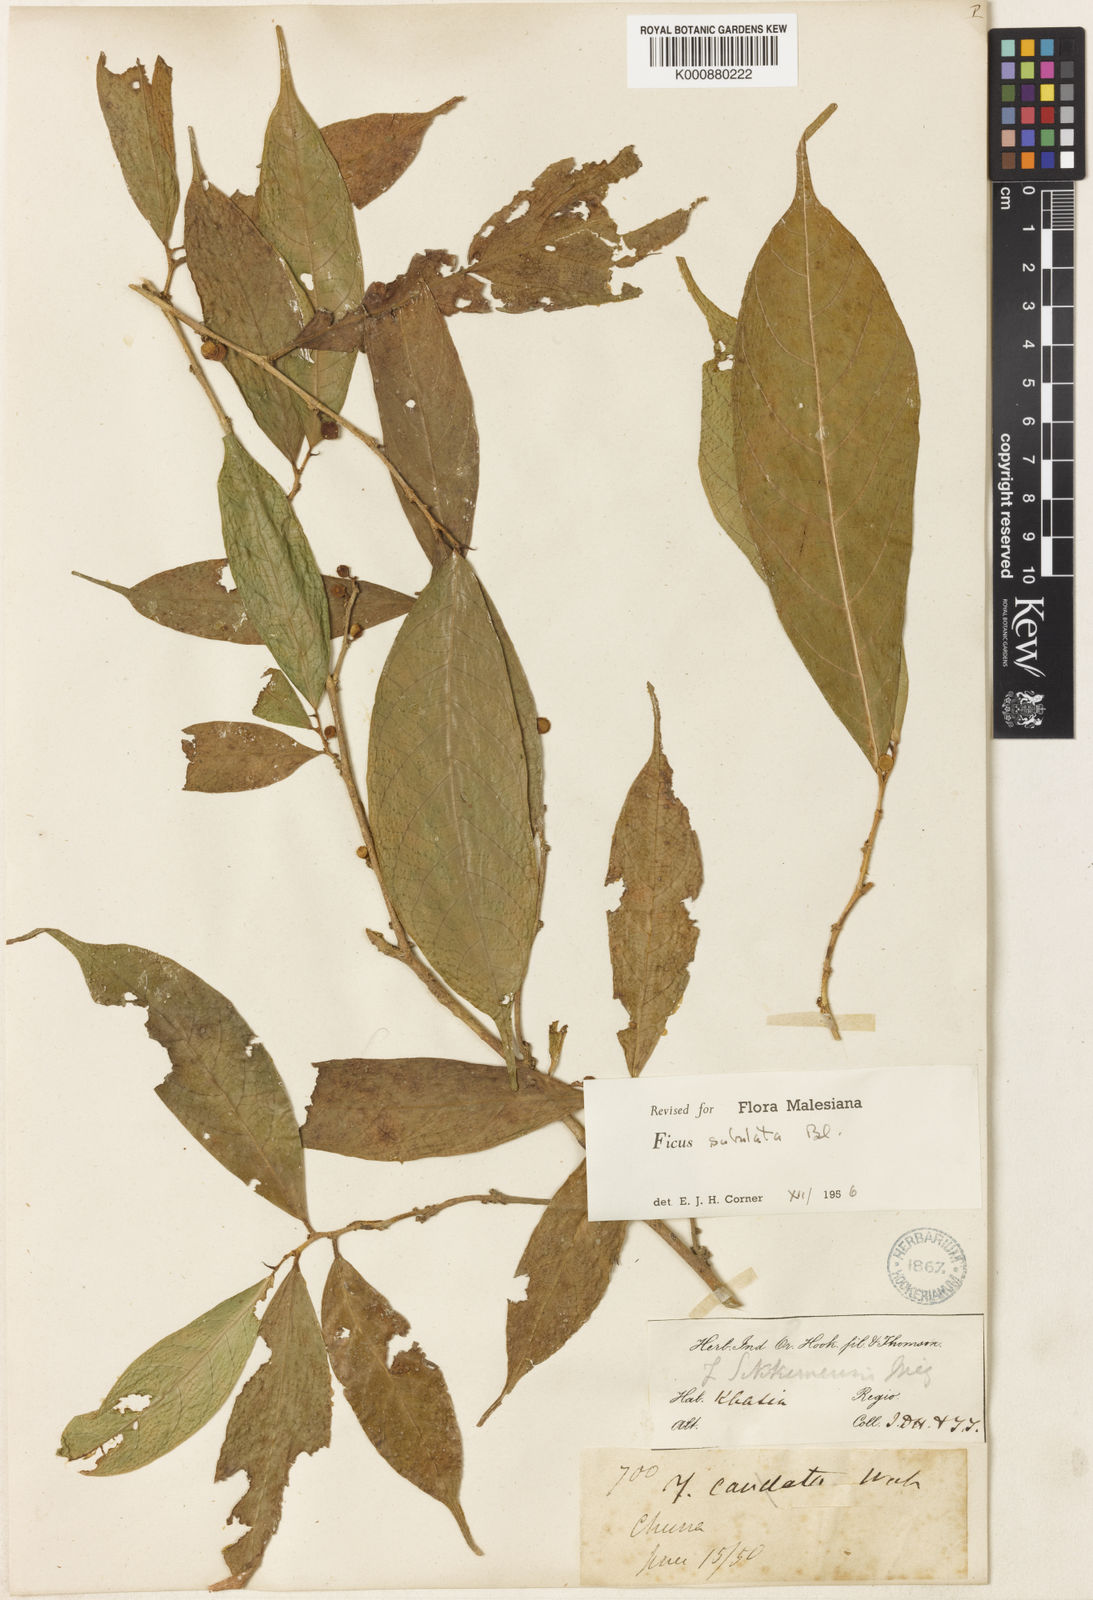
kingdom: Plantae
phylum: Tracheophyta
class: Magnoliopsida
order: Rosales
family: Moraceae
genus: Ficus
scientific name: Ficus subulata
